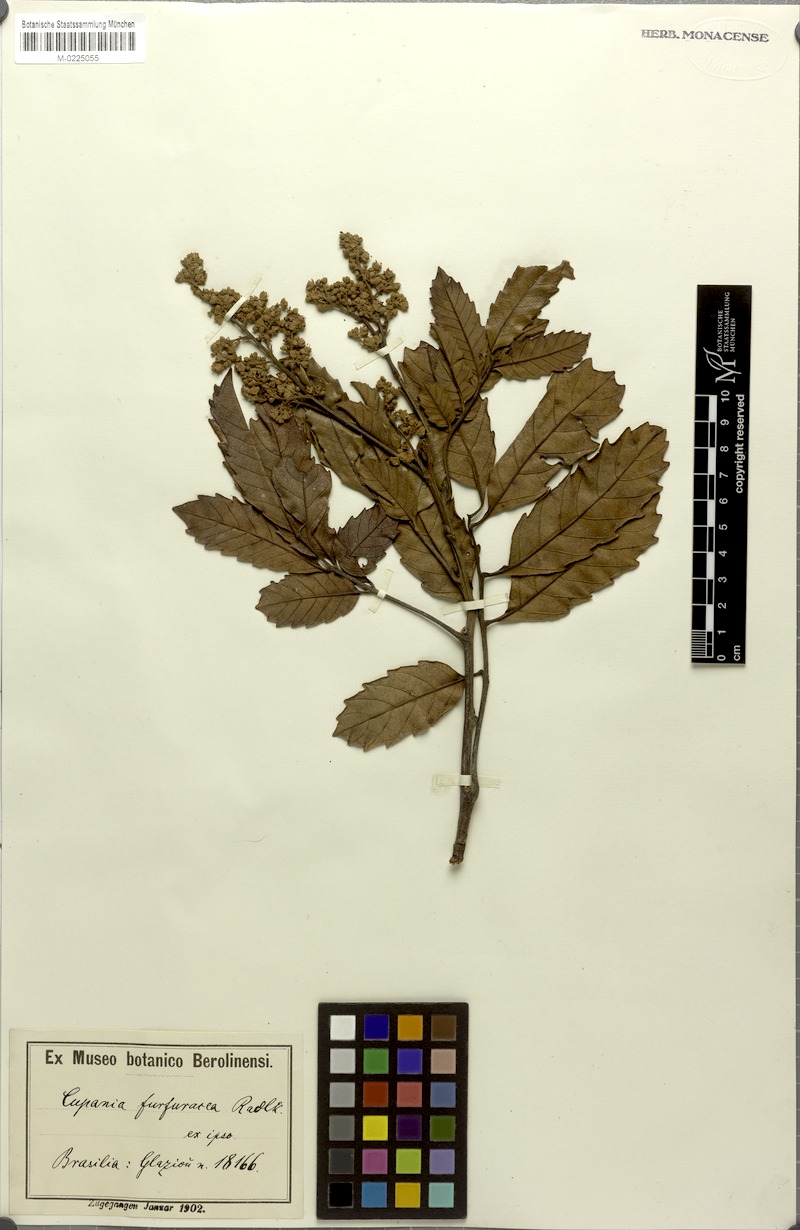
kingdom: Plantae
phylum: Tracheophyta
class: Magnoliopsida
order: Sapindales
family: Sapindaceae
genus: Cupania
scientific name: Cupania furfuracea
